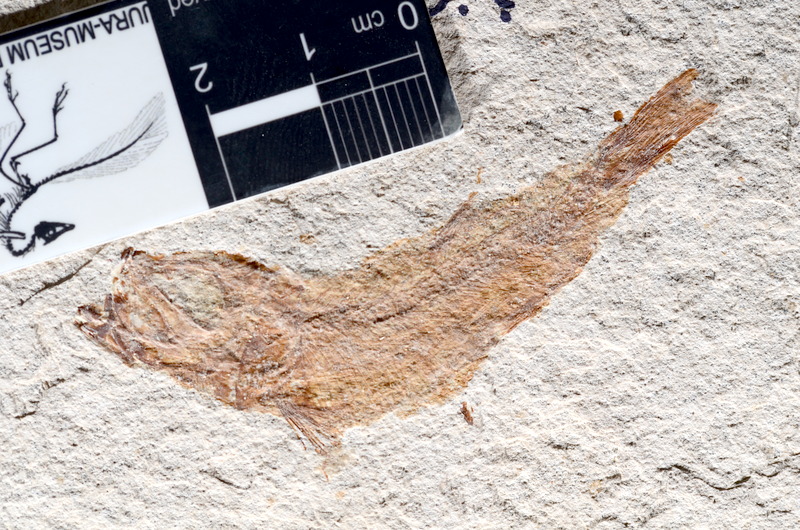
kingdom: Animalia
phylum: Chordata
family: Ascalaboidae
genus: Tharsis
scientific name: Tharsis dubius
